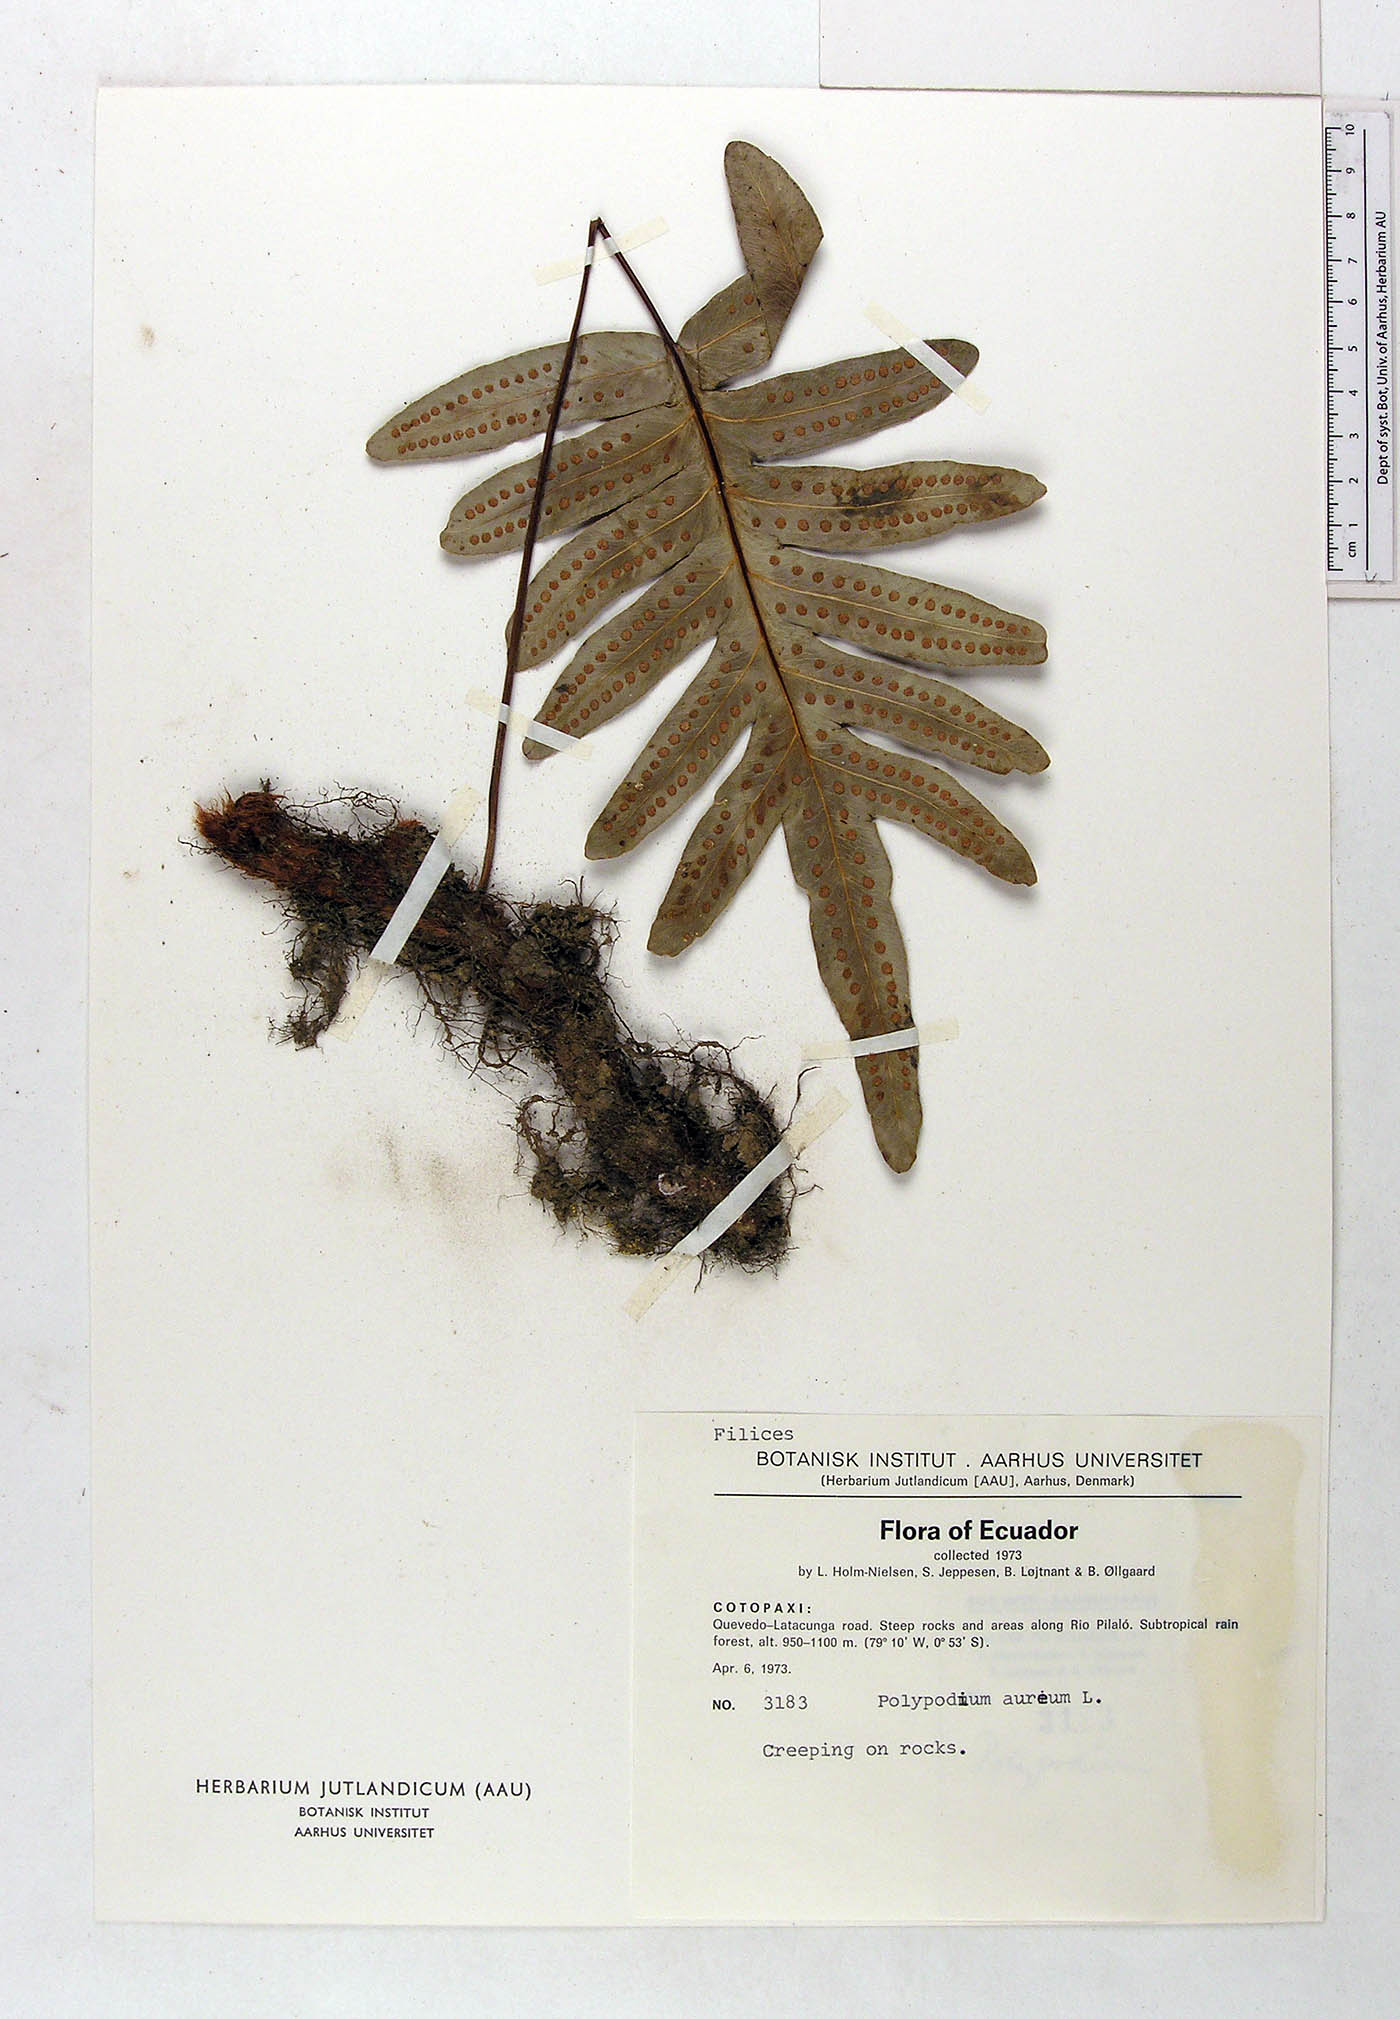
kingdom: Plantae
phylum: Tracheophyta
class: Polypodiopsida
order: Polypodiales
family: Polypodiaceae
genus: Phlebodium
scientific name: Phlebodium aureum
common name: Gold-foot fern
